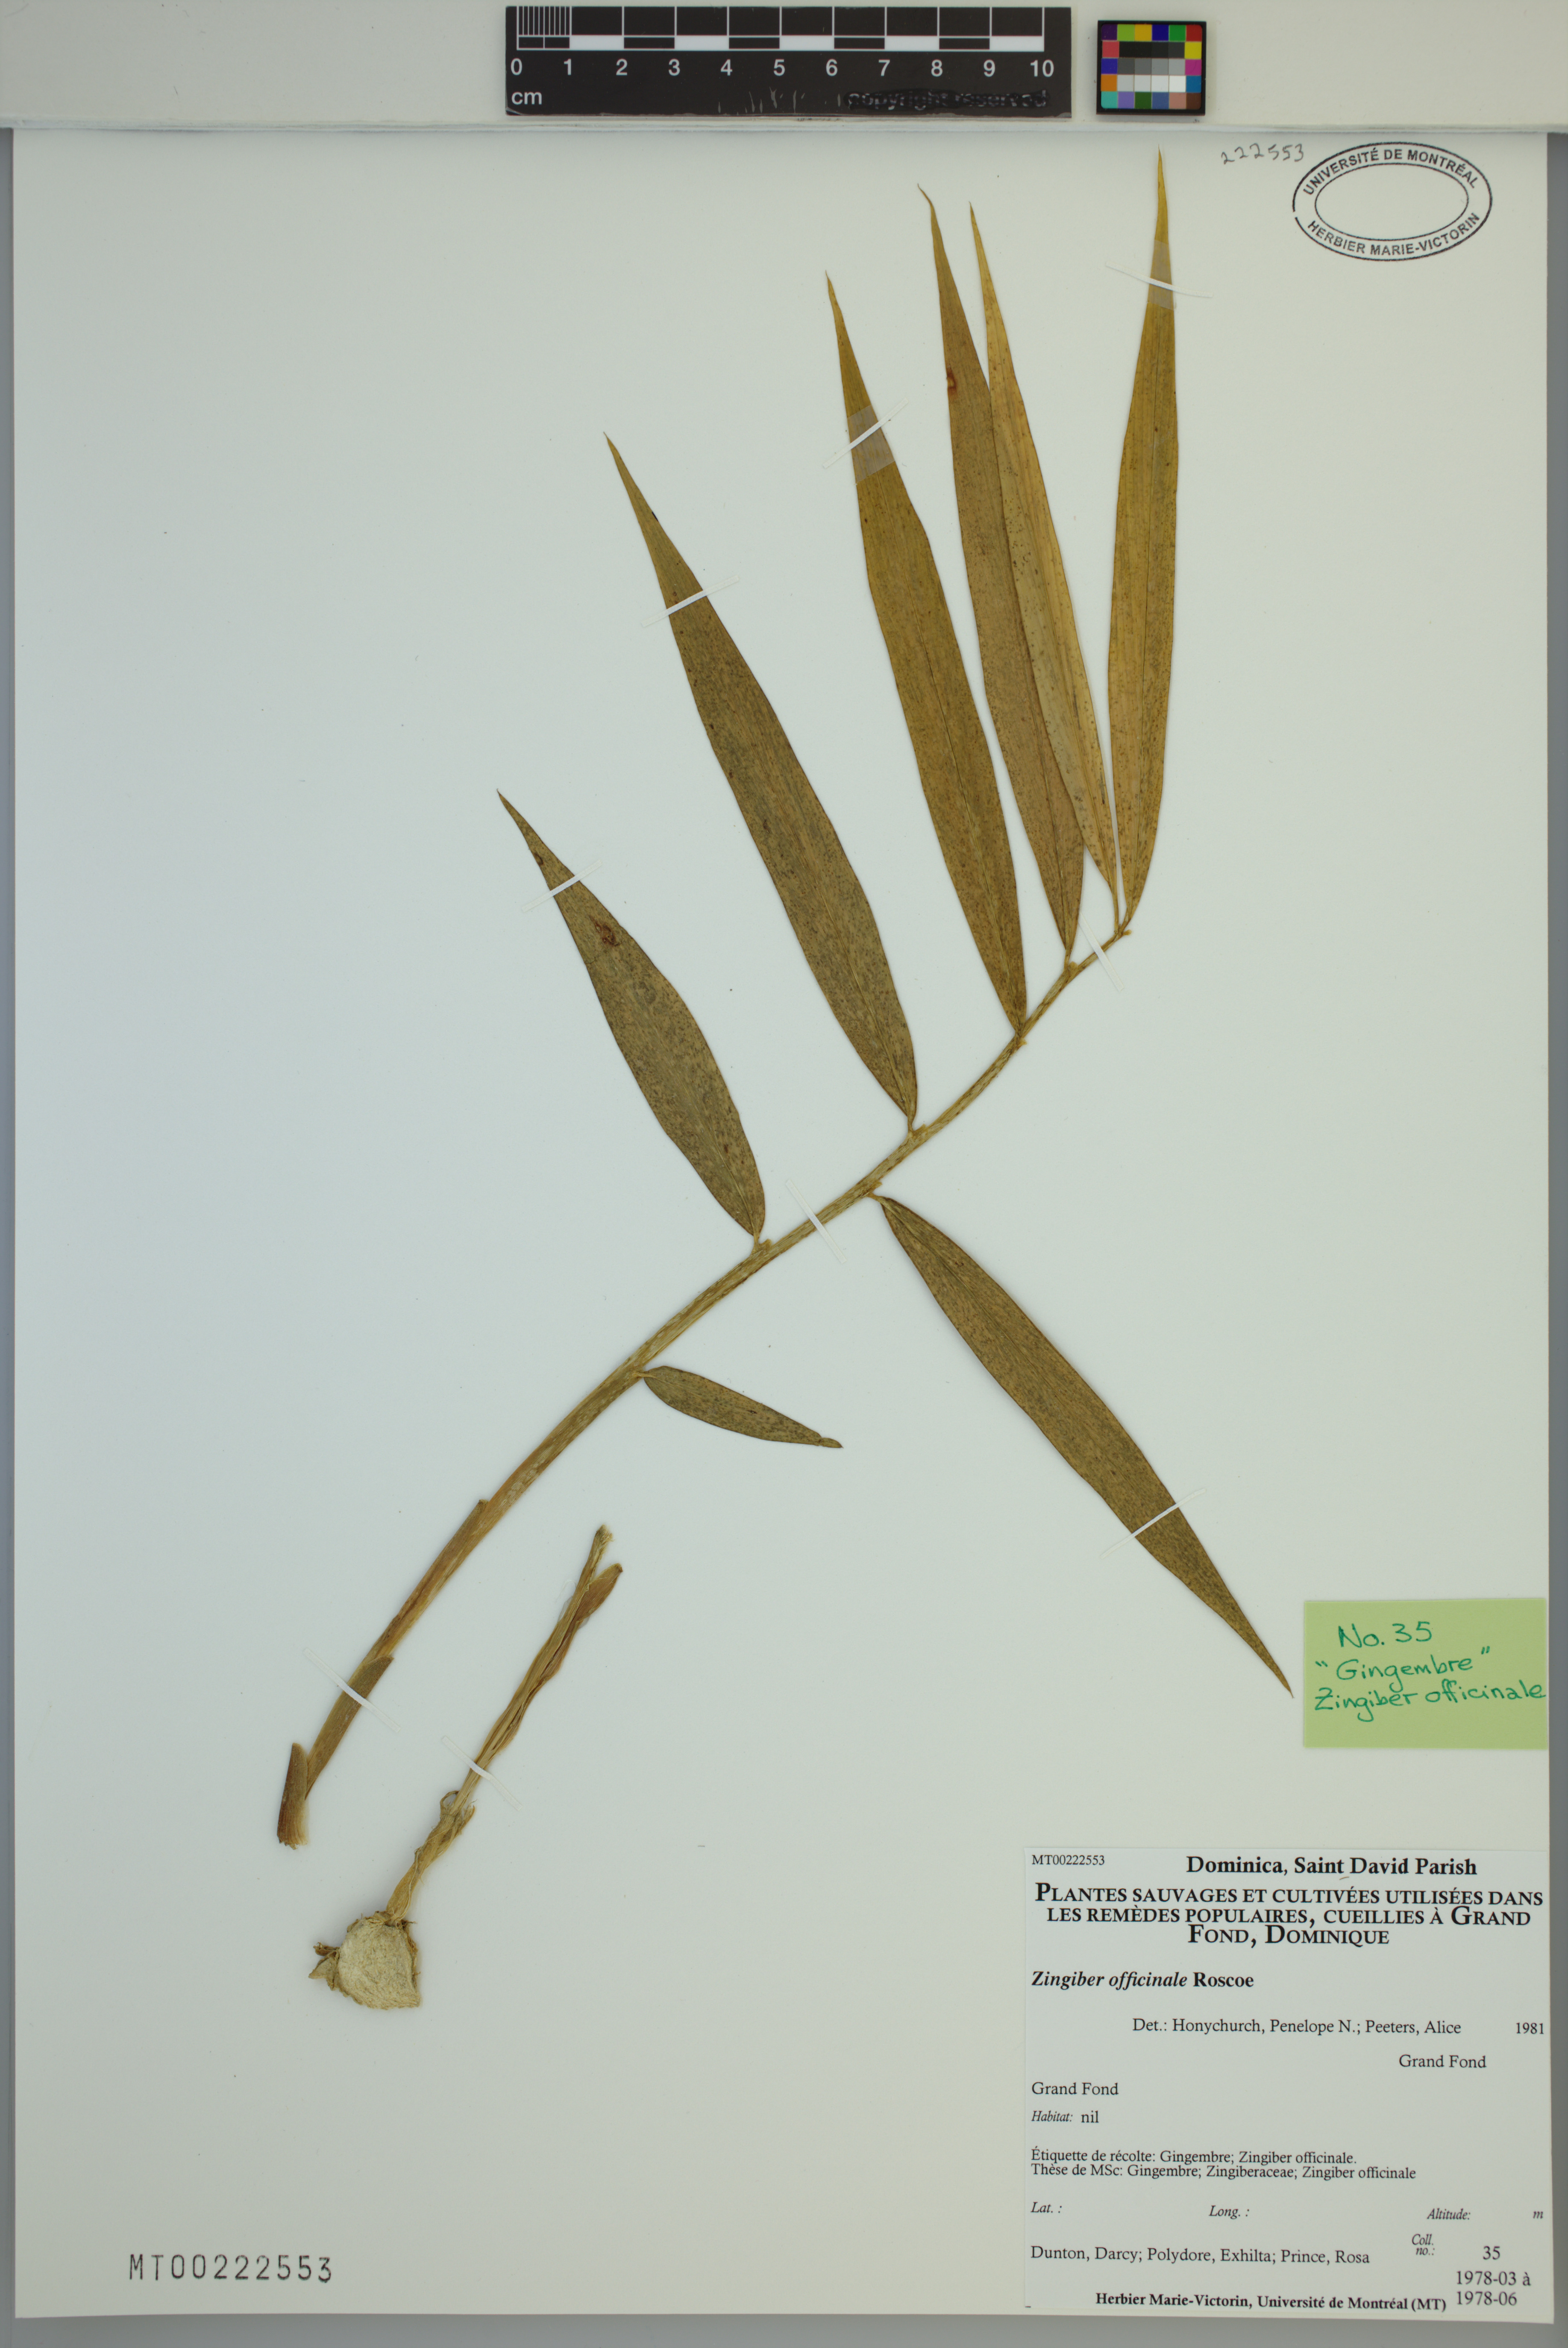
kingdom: Plantae
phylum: Tracheophyta
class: Liliopsida
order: Zingiberales
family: Zingiberaceae
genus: Zingiber
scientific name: Zingiber officinale
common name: Ginger
